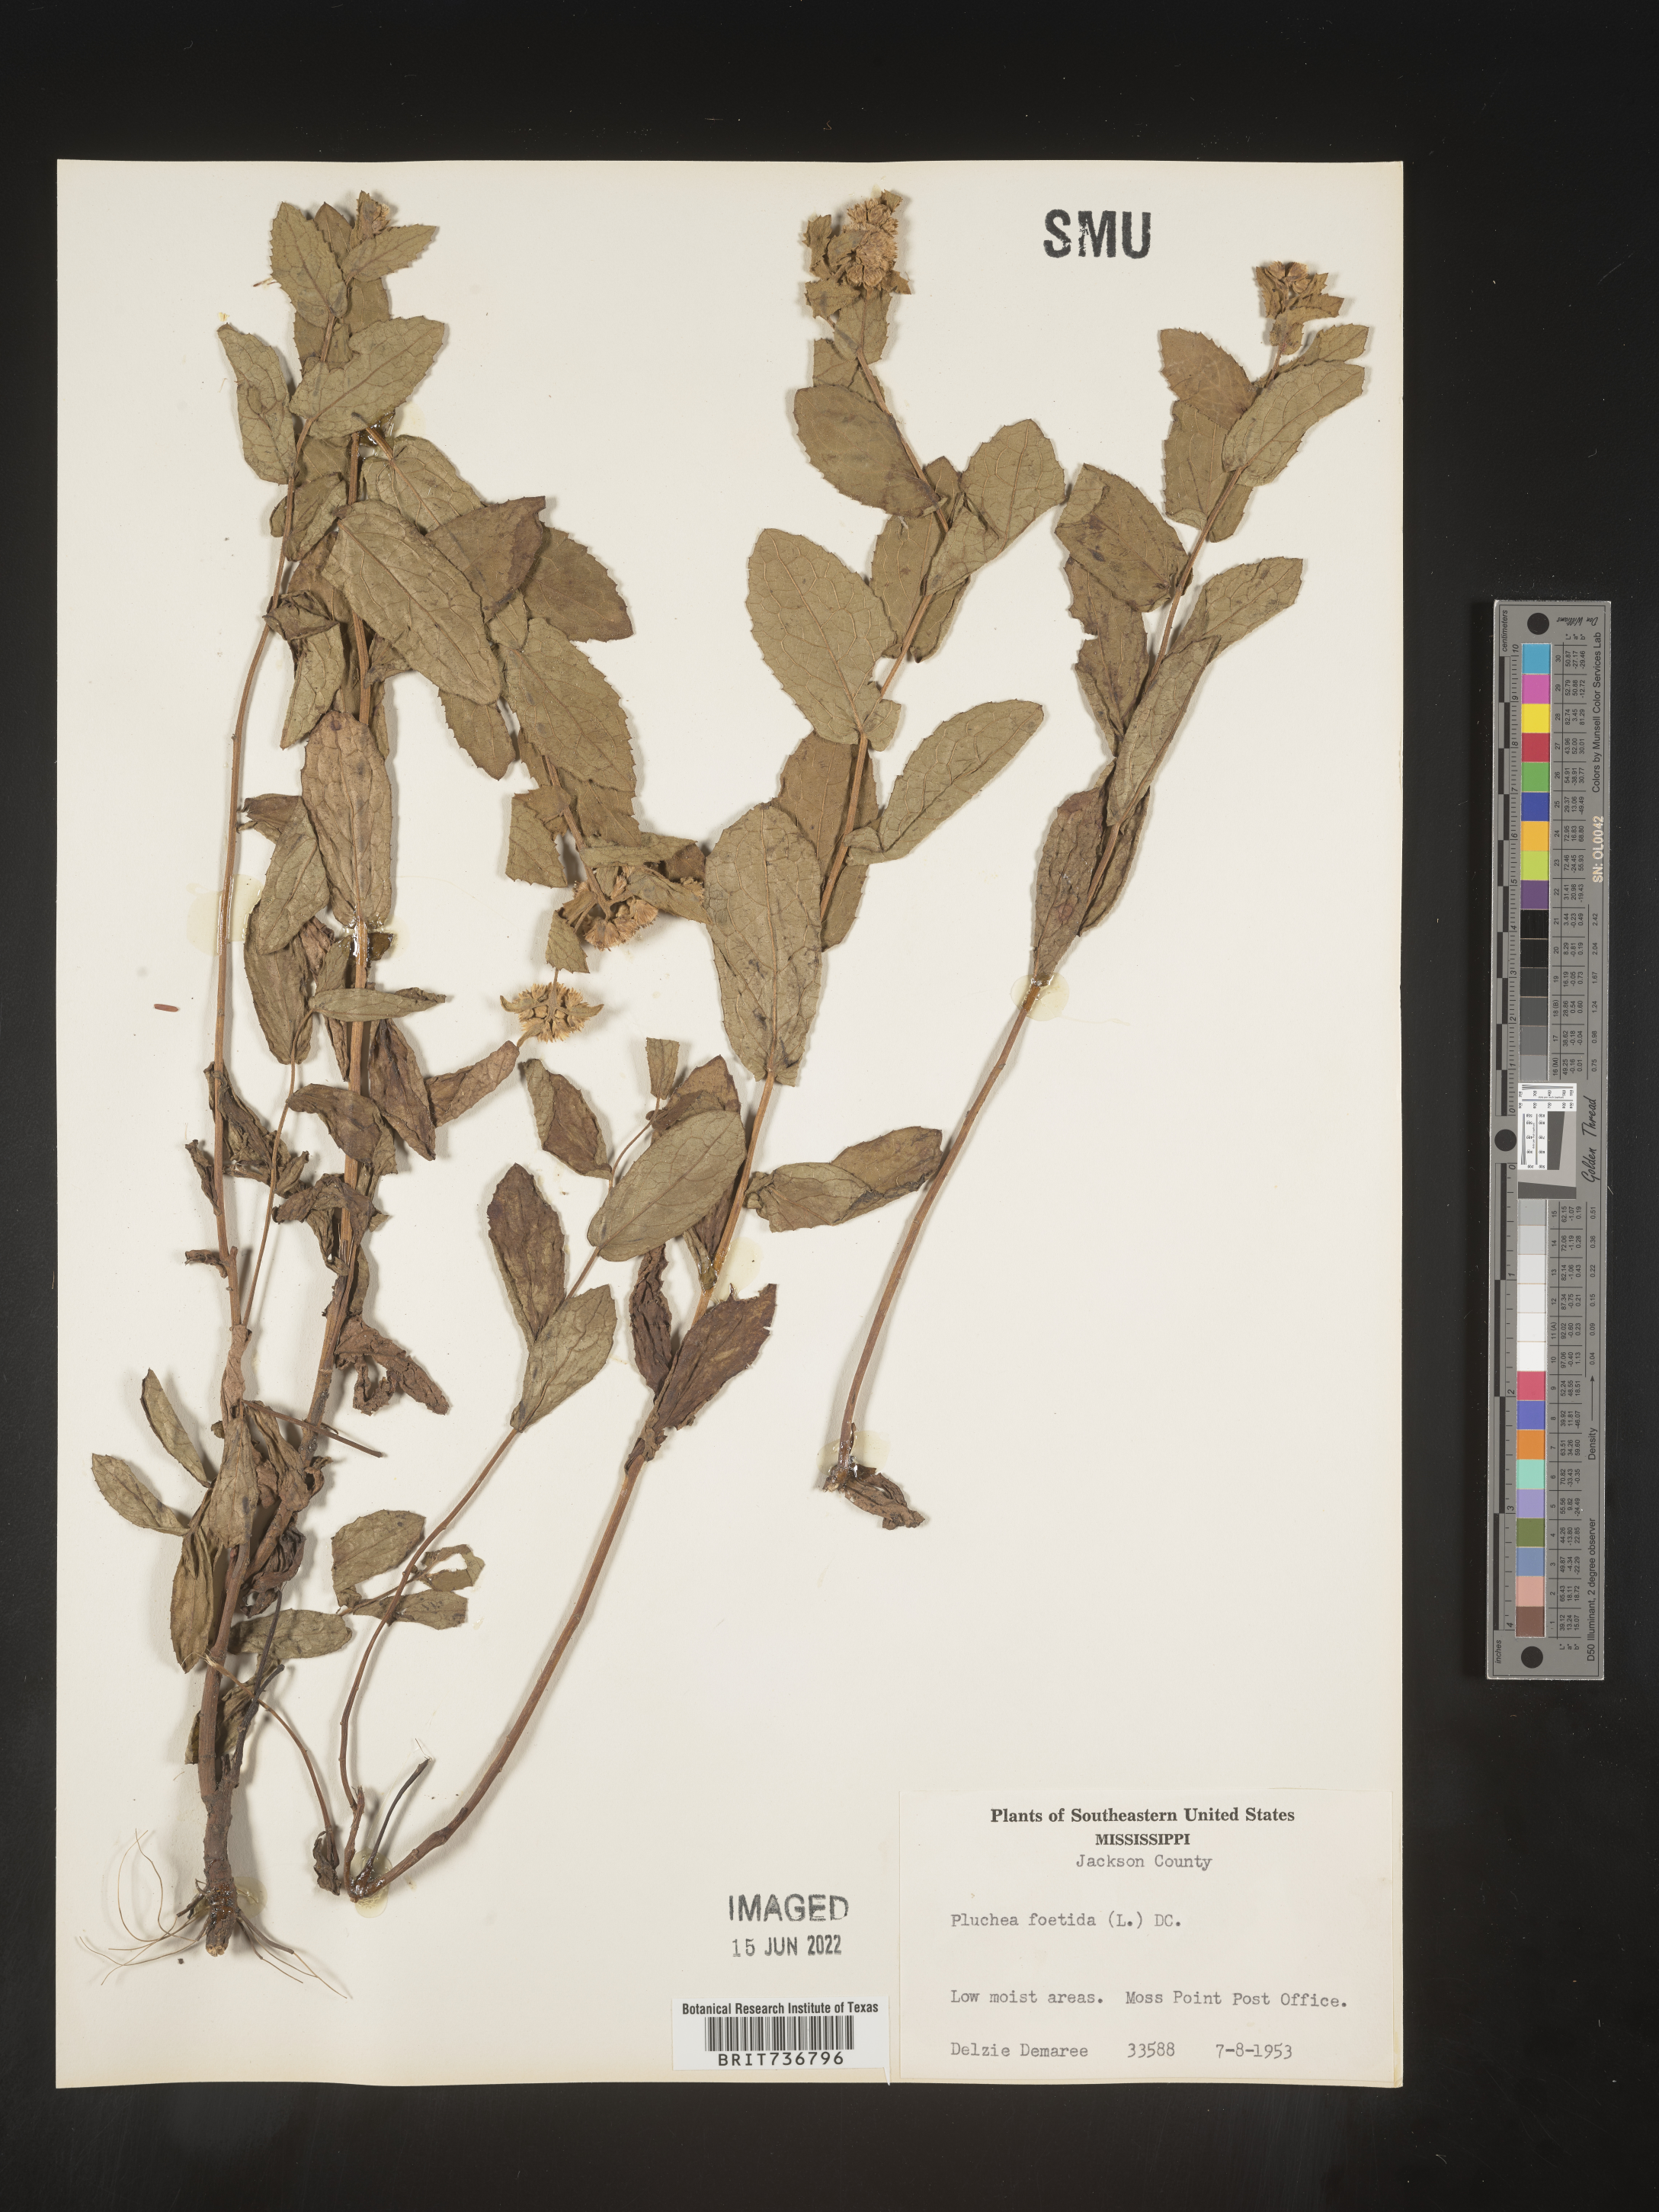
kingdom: Plantae
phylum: Tracheophyta
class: Magnoliopsida
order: Asterales
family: Asteraceae
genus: Pluchea
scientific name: Pluchea baccharis
